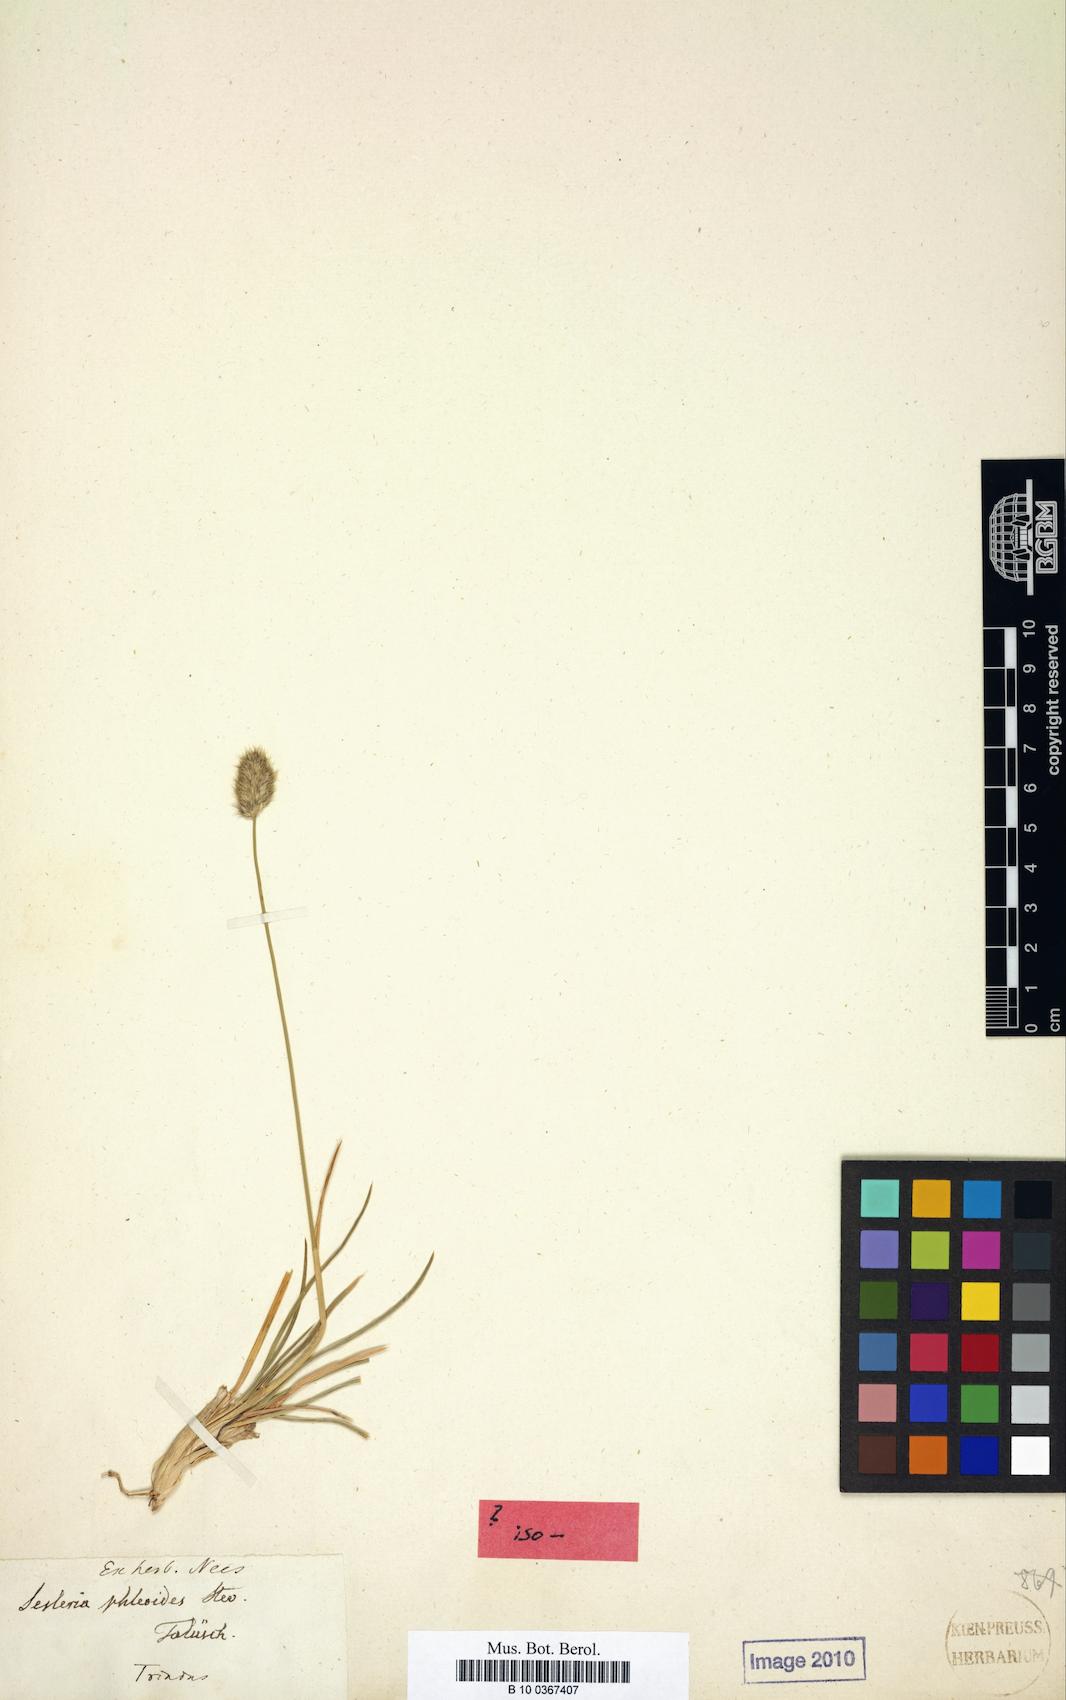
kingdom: Plantae
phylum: Tracheophyta
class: Liliopsida
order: Poales
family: Poaceae
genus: Sesleria
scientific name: Sesleria phleoides
